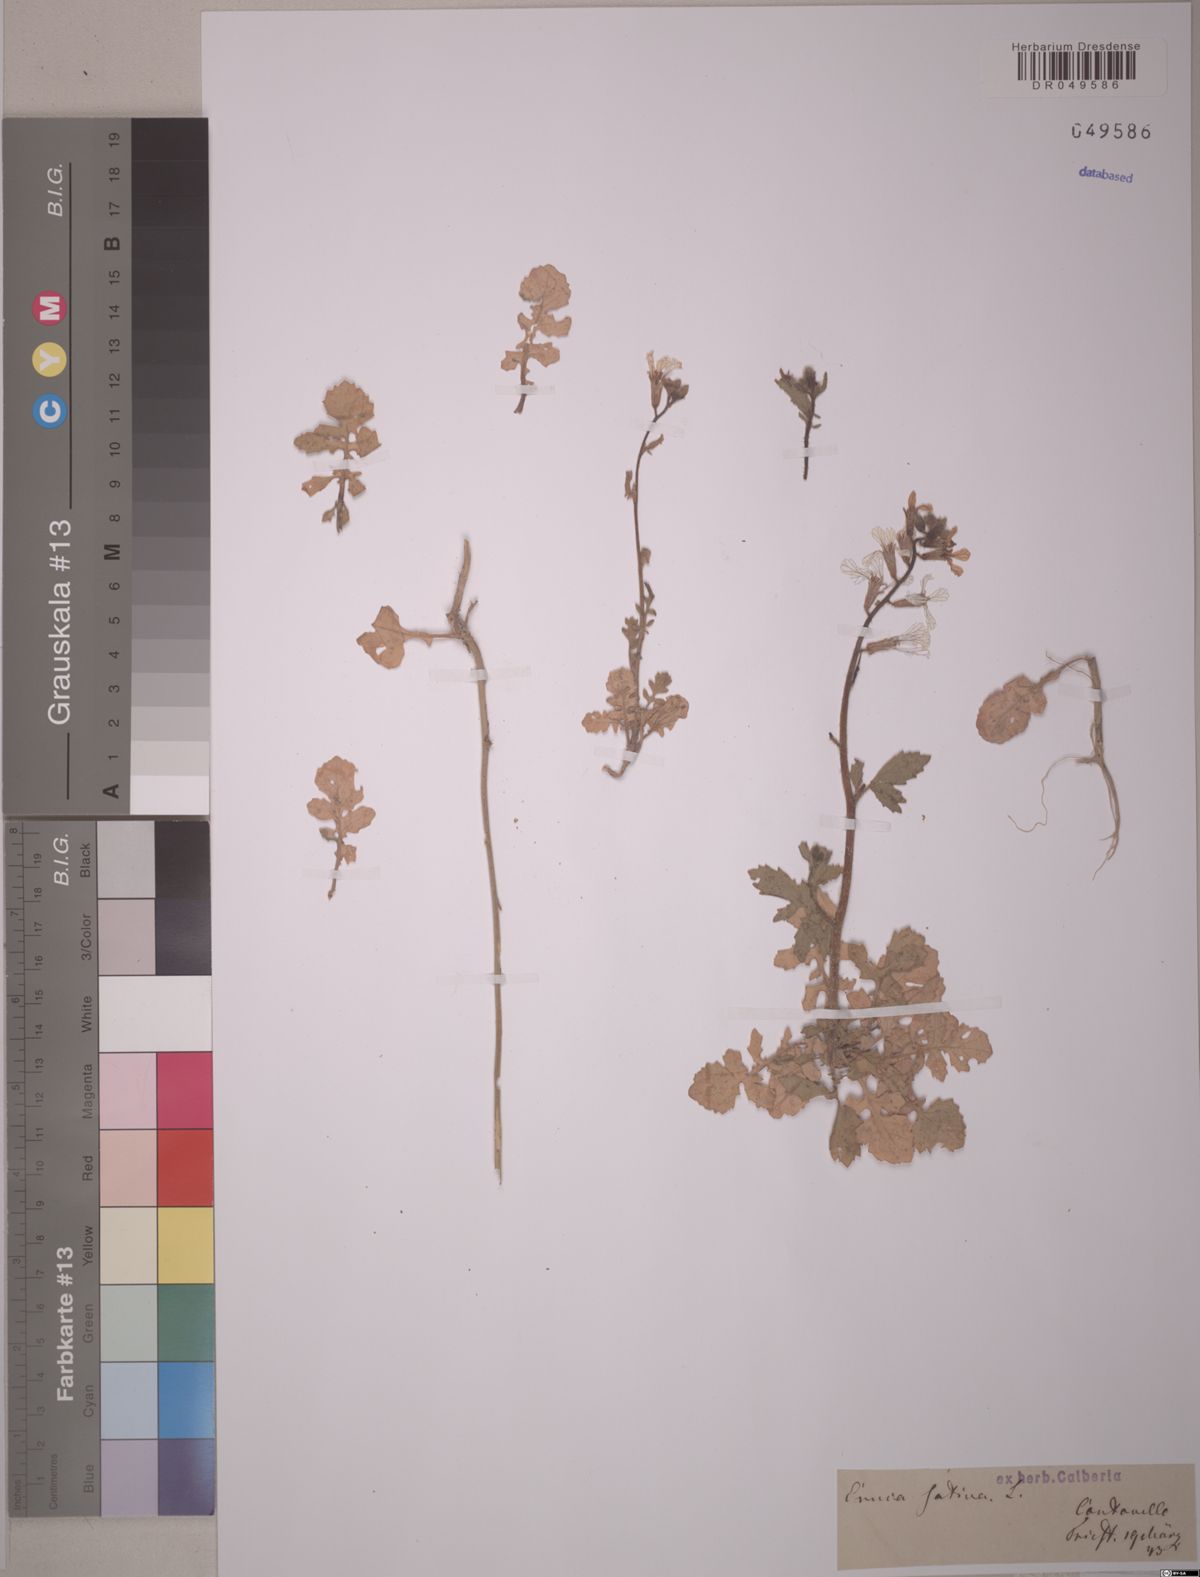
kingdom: Plantae
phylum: Tracheophyta
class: Magnoliopsida
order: Brassicales
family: Brassicaceae
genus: Eruca
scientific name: Eruca vesicaria
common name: Garden rocket
